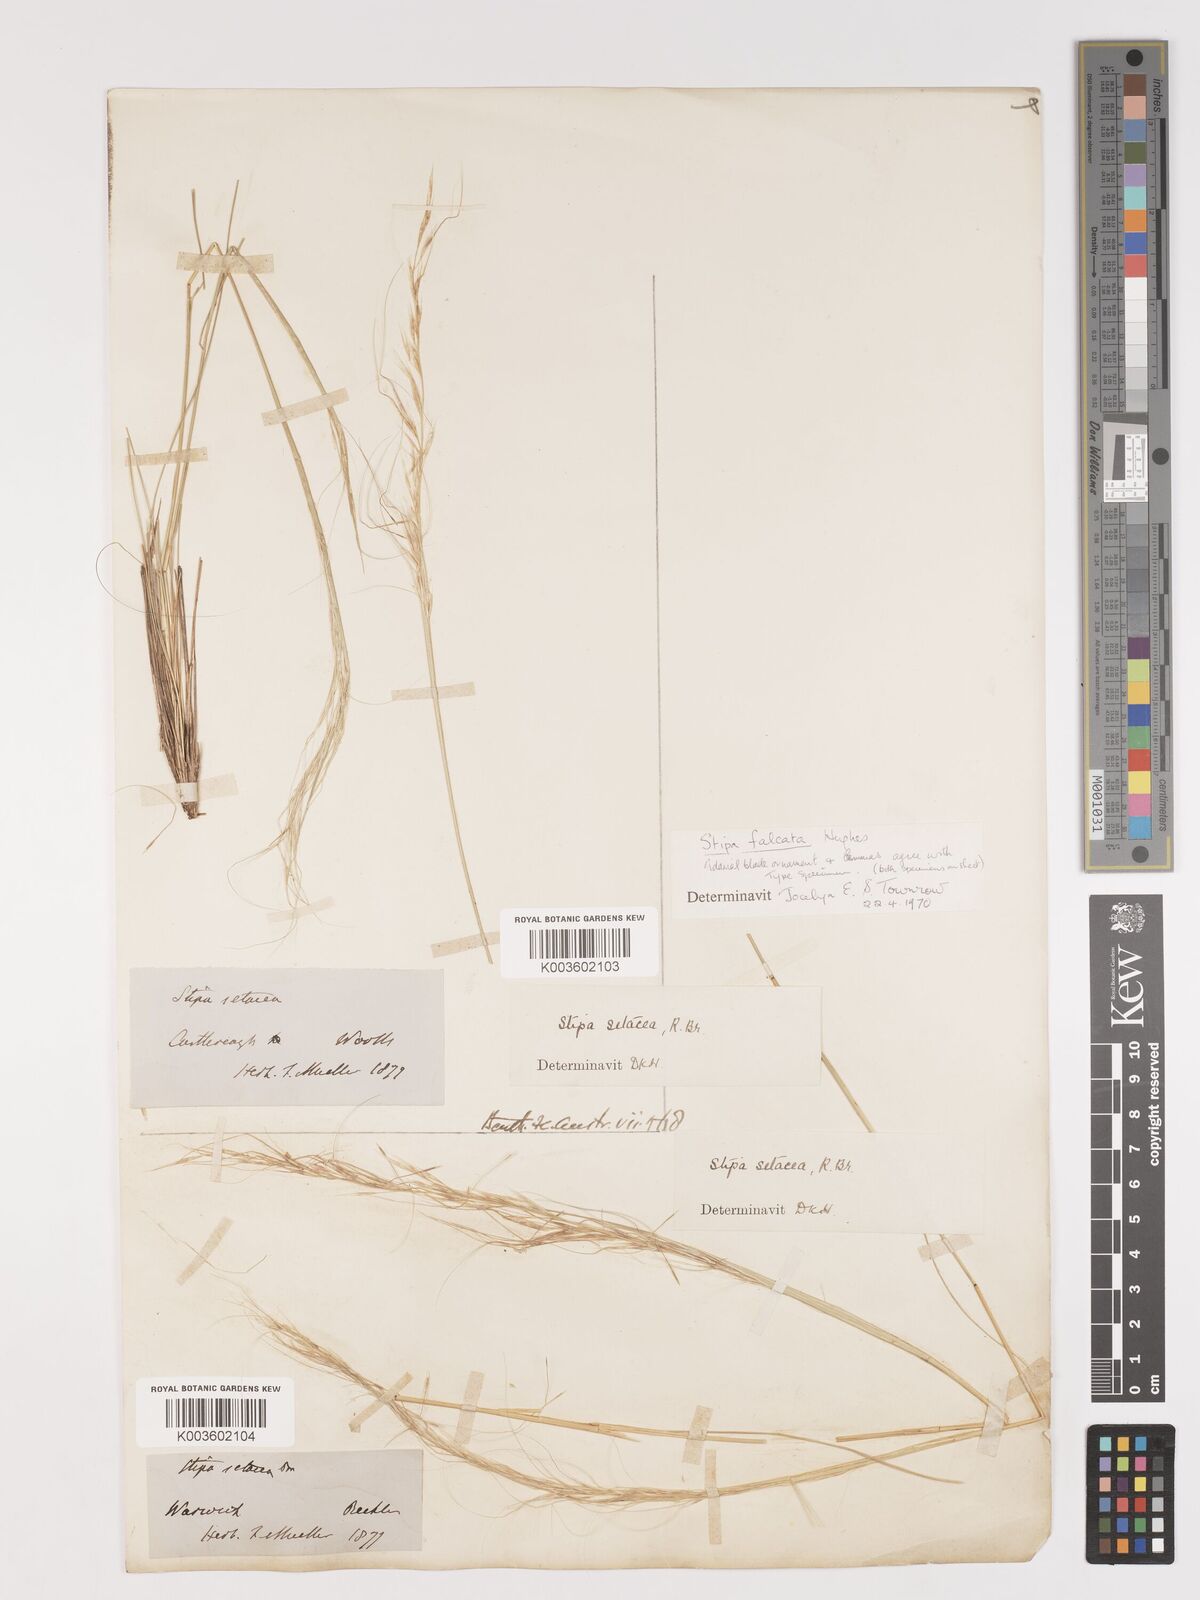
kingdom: Plantae
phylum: Tracheophyta
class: Liliopsida
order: Poales
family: Poaceae
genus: Austrostipa
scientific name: Austrostipa scabra
